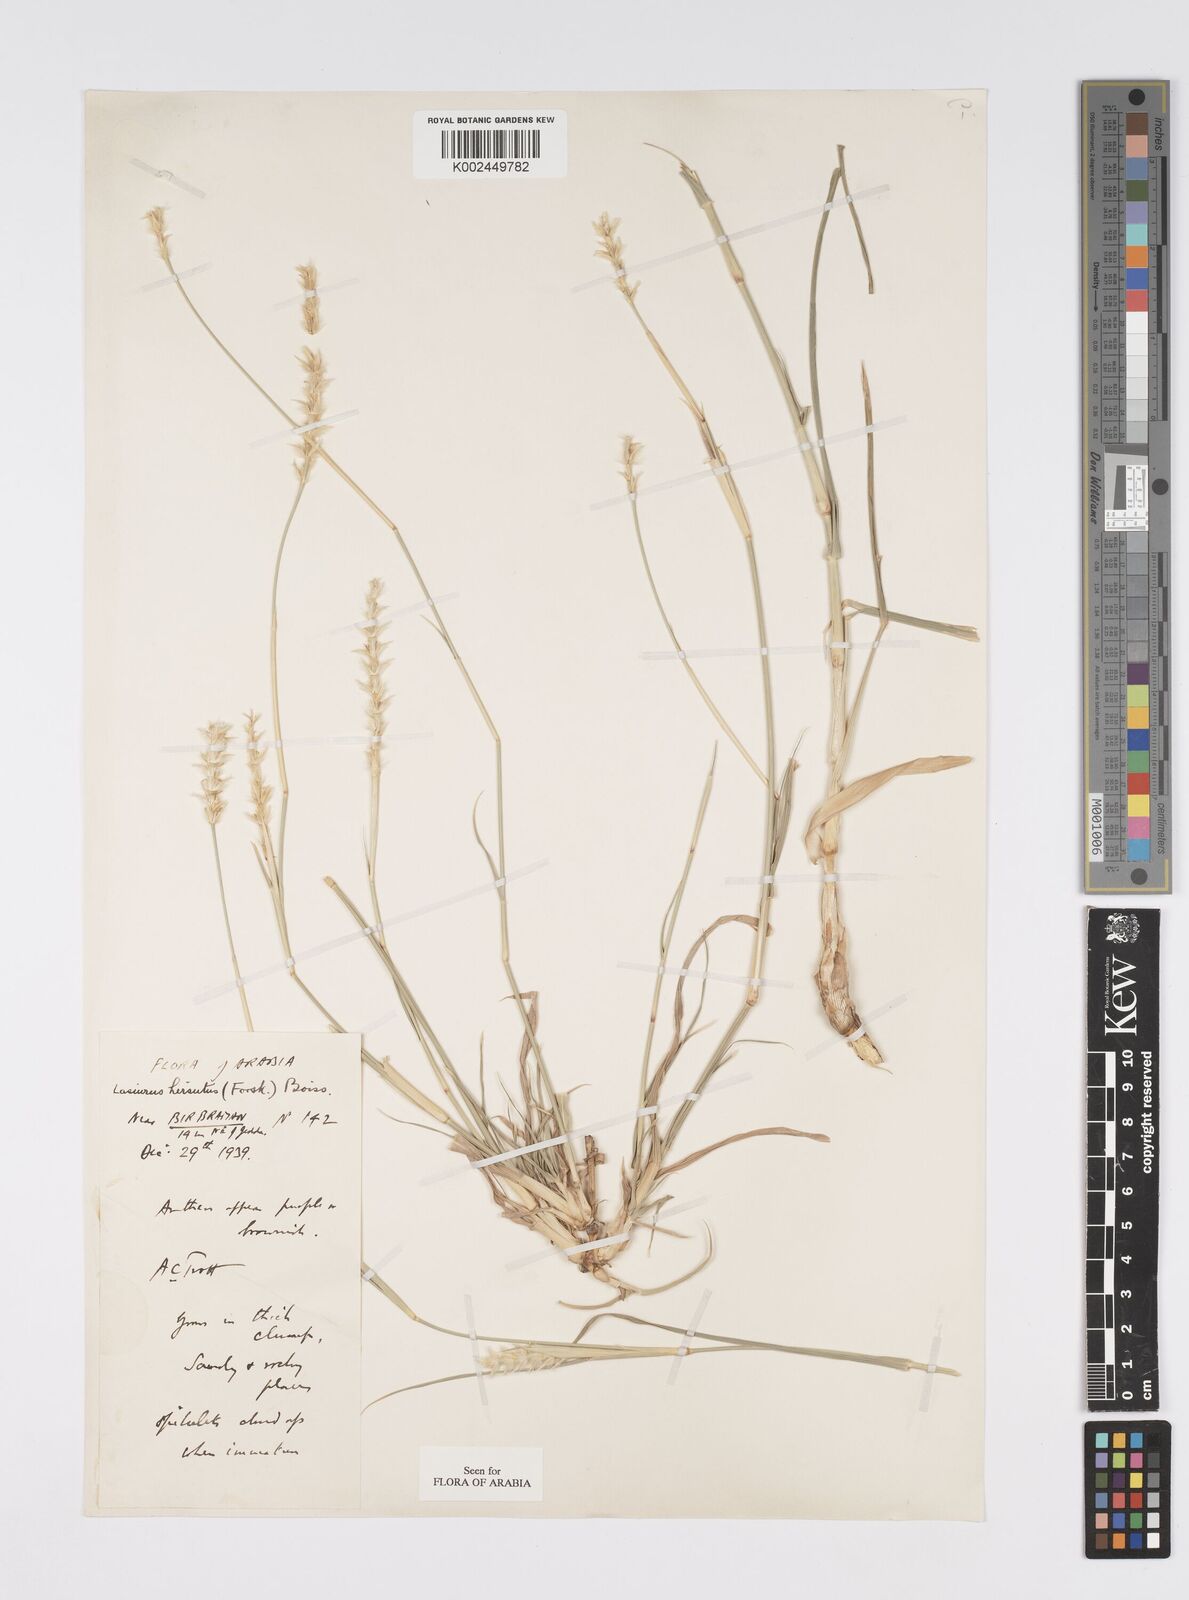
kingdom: Plantae
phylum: Tracheophyta
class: Liliopsida
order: Poales
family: Poaceae
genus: Lasiurus
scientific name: Lasiurus scindicus
